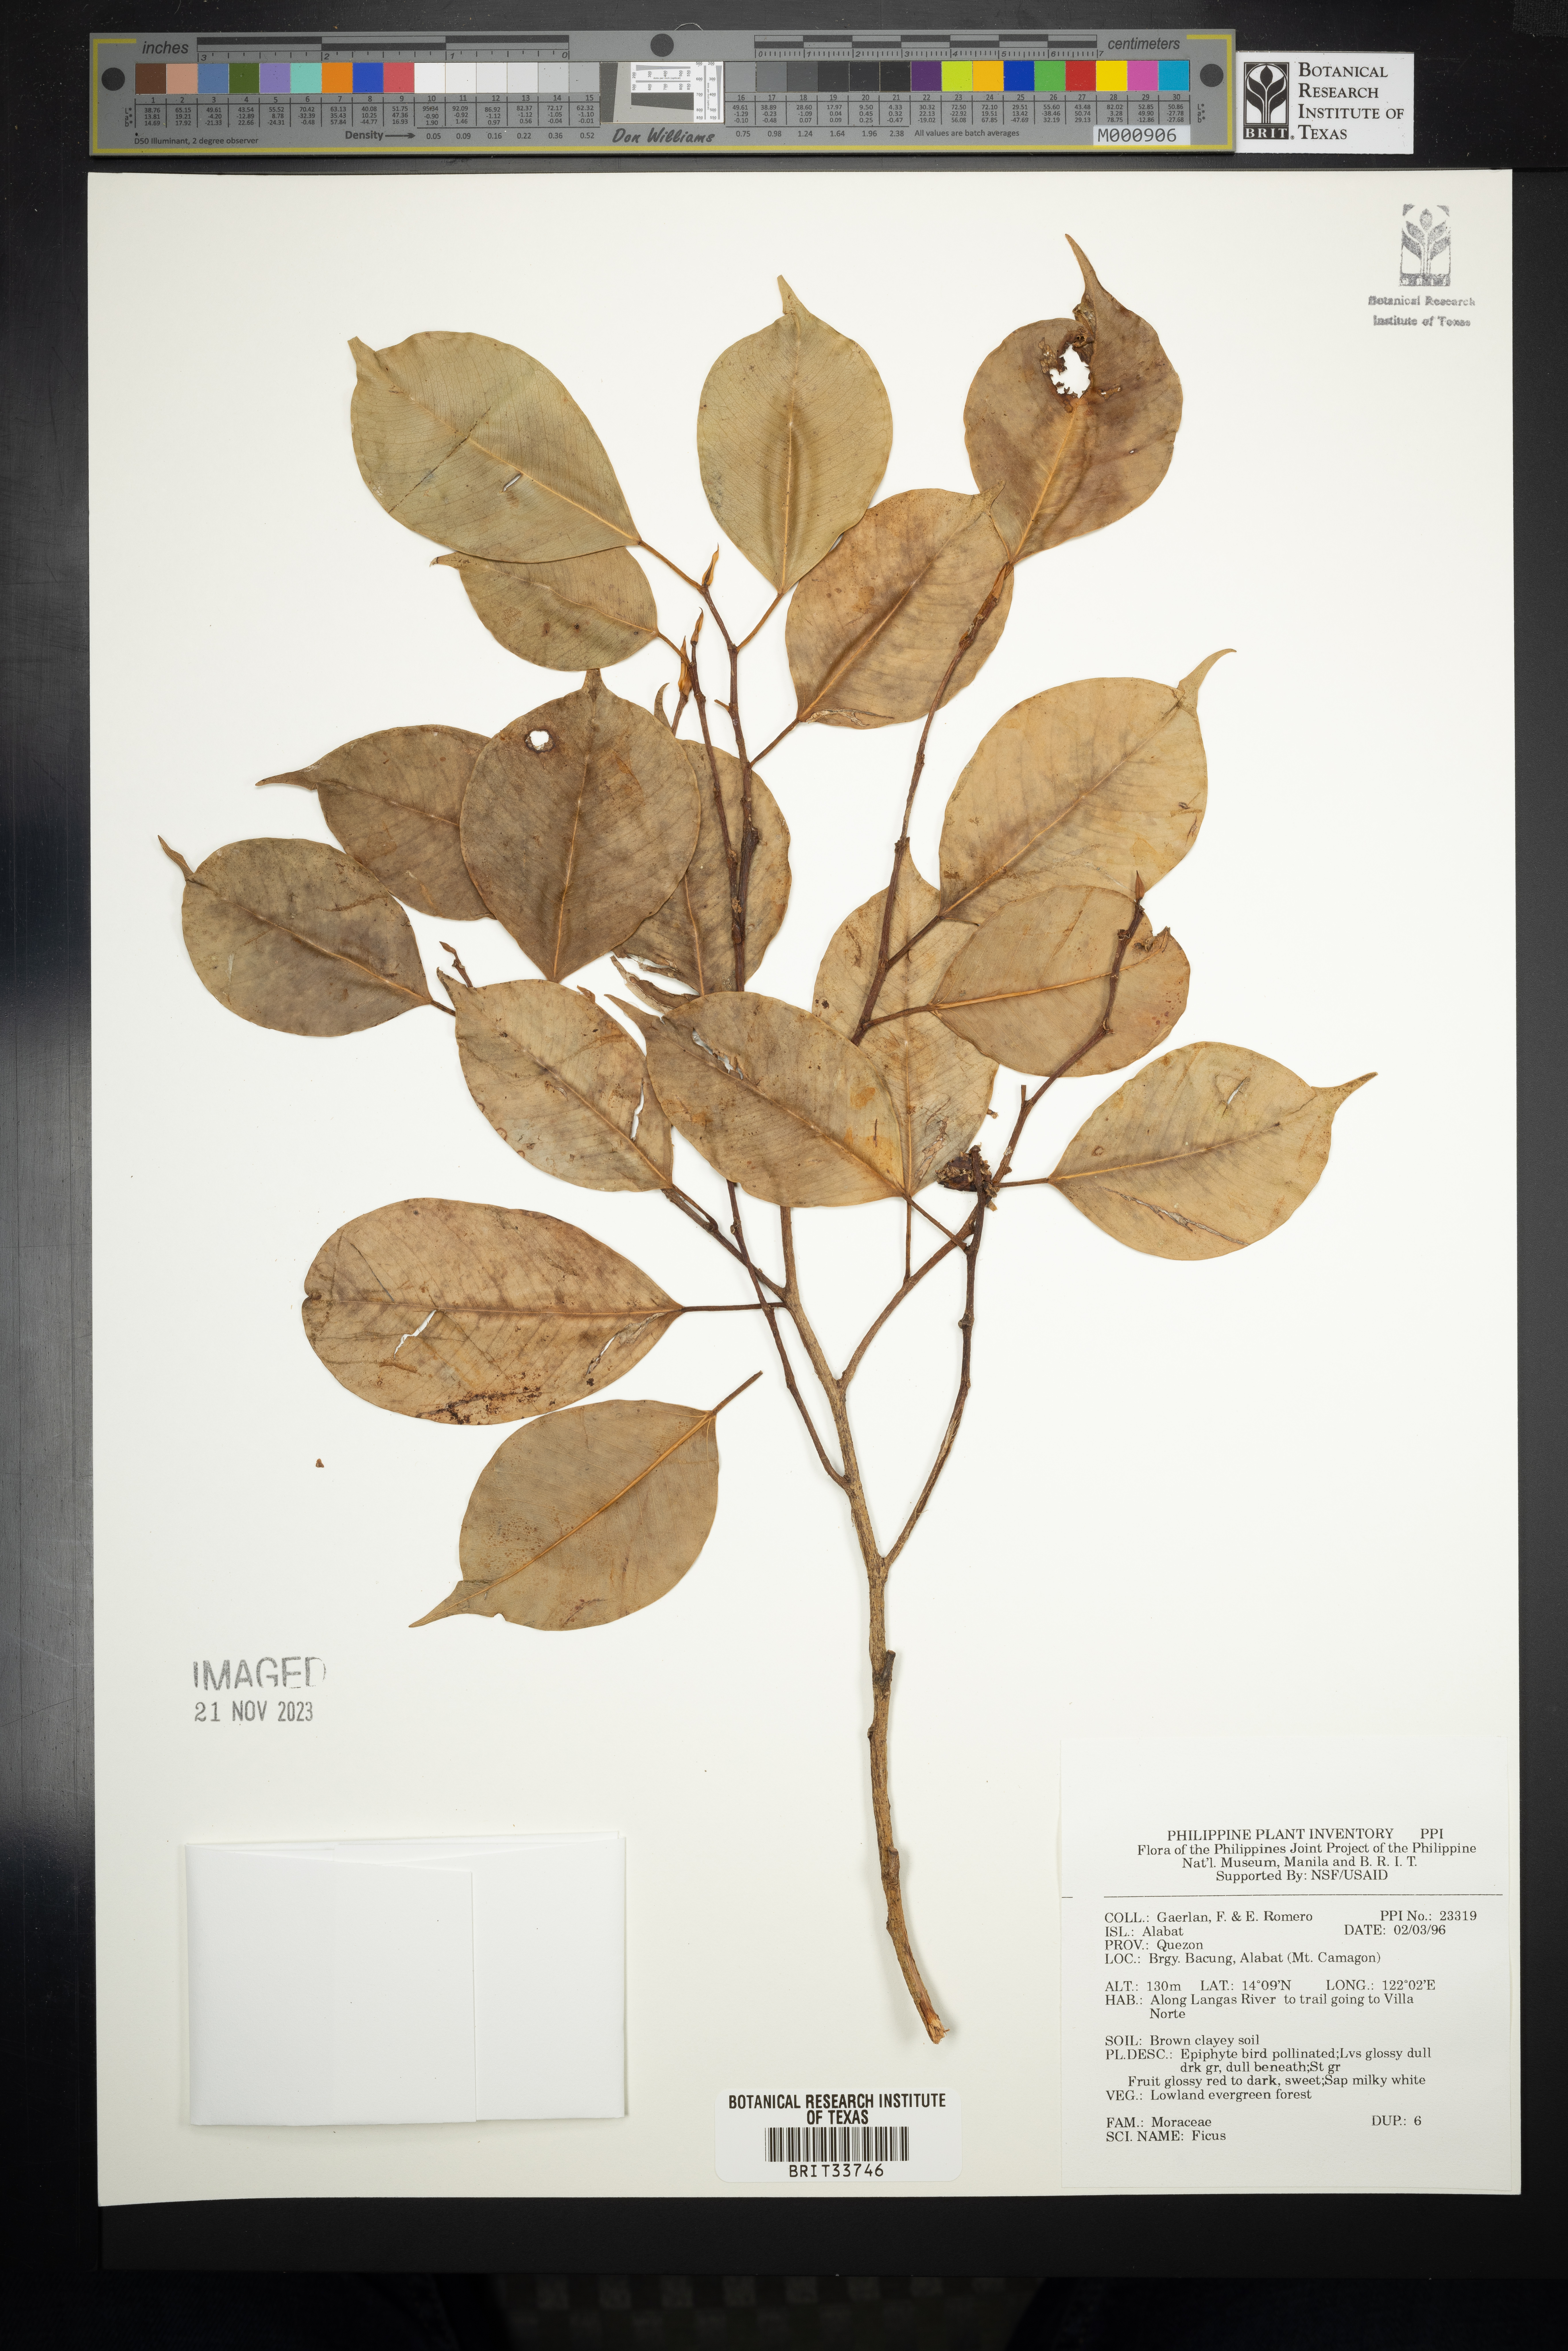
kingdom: Plantae
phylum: Tracheophyta
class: Magnoliopsida
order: Rosales
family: Moraceae
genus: Ficus
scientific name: Ficus
